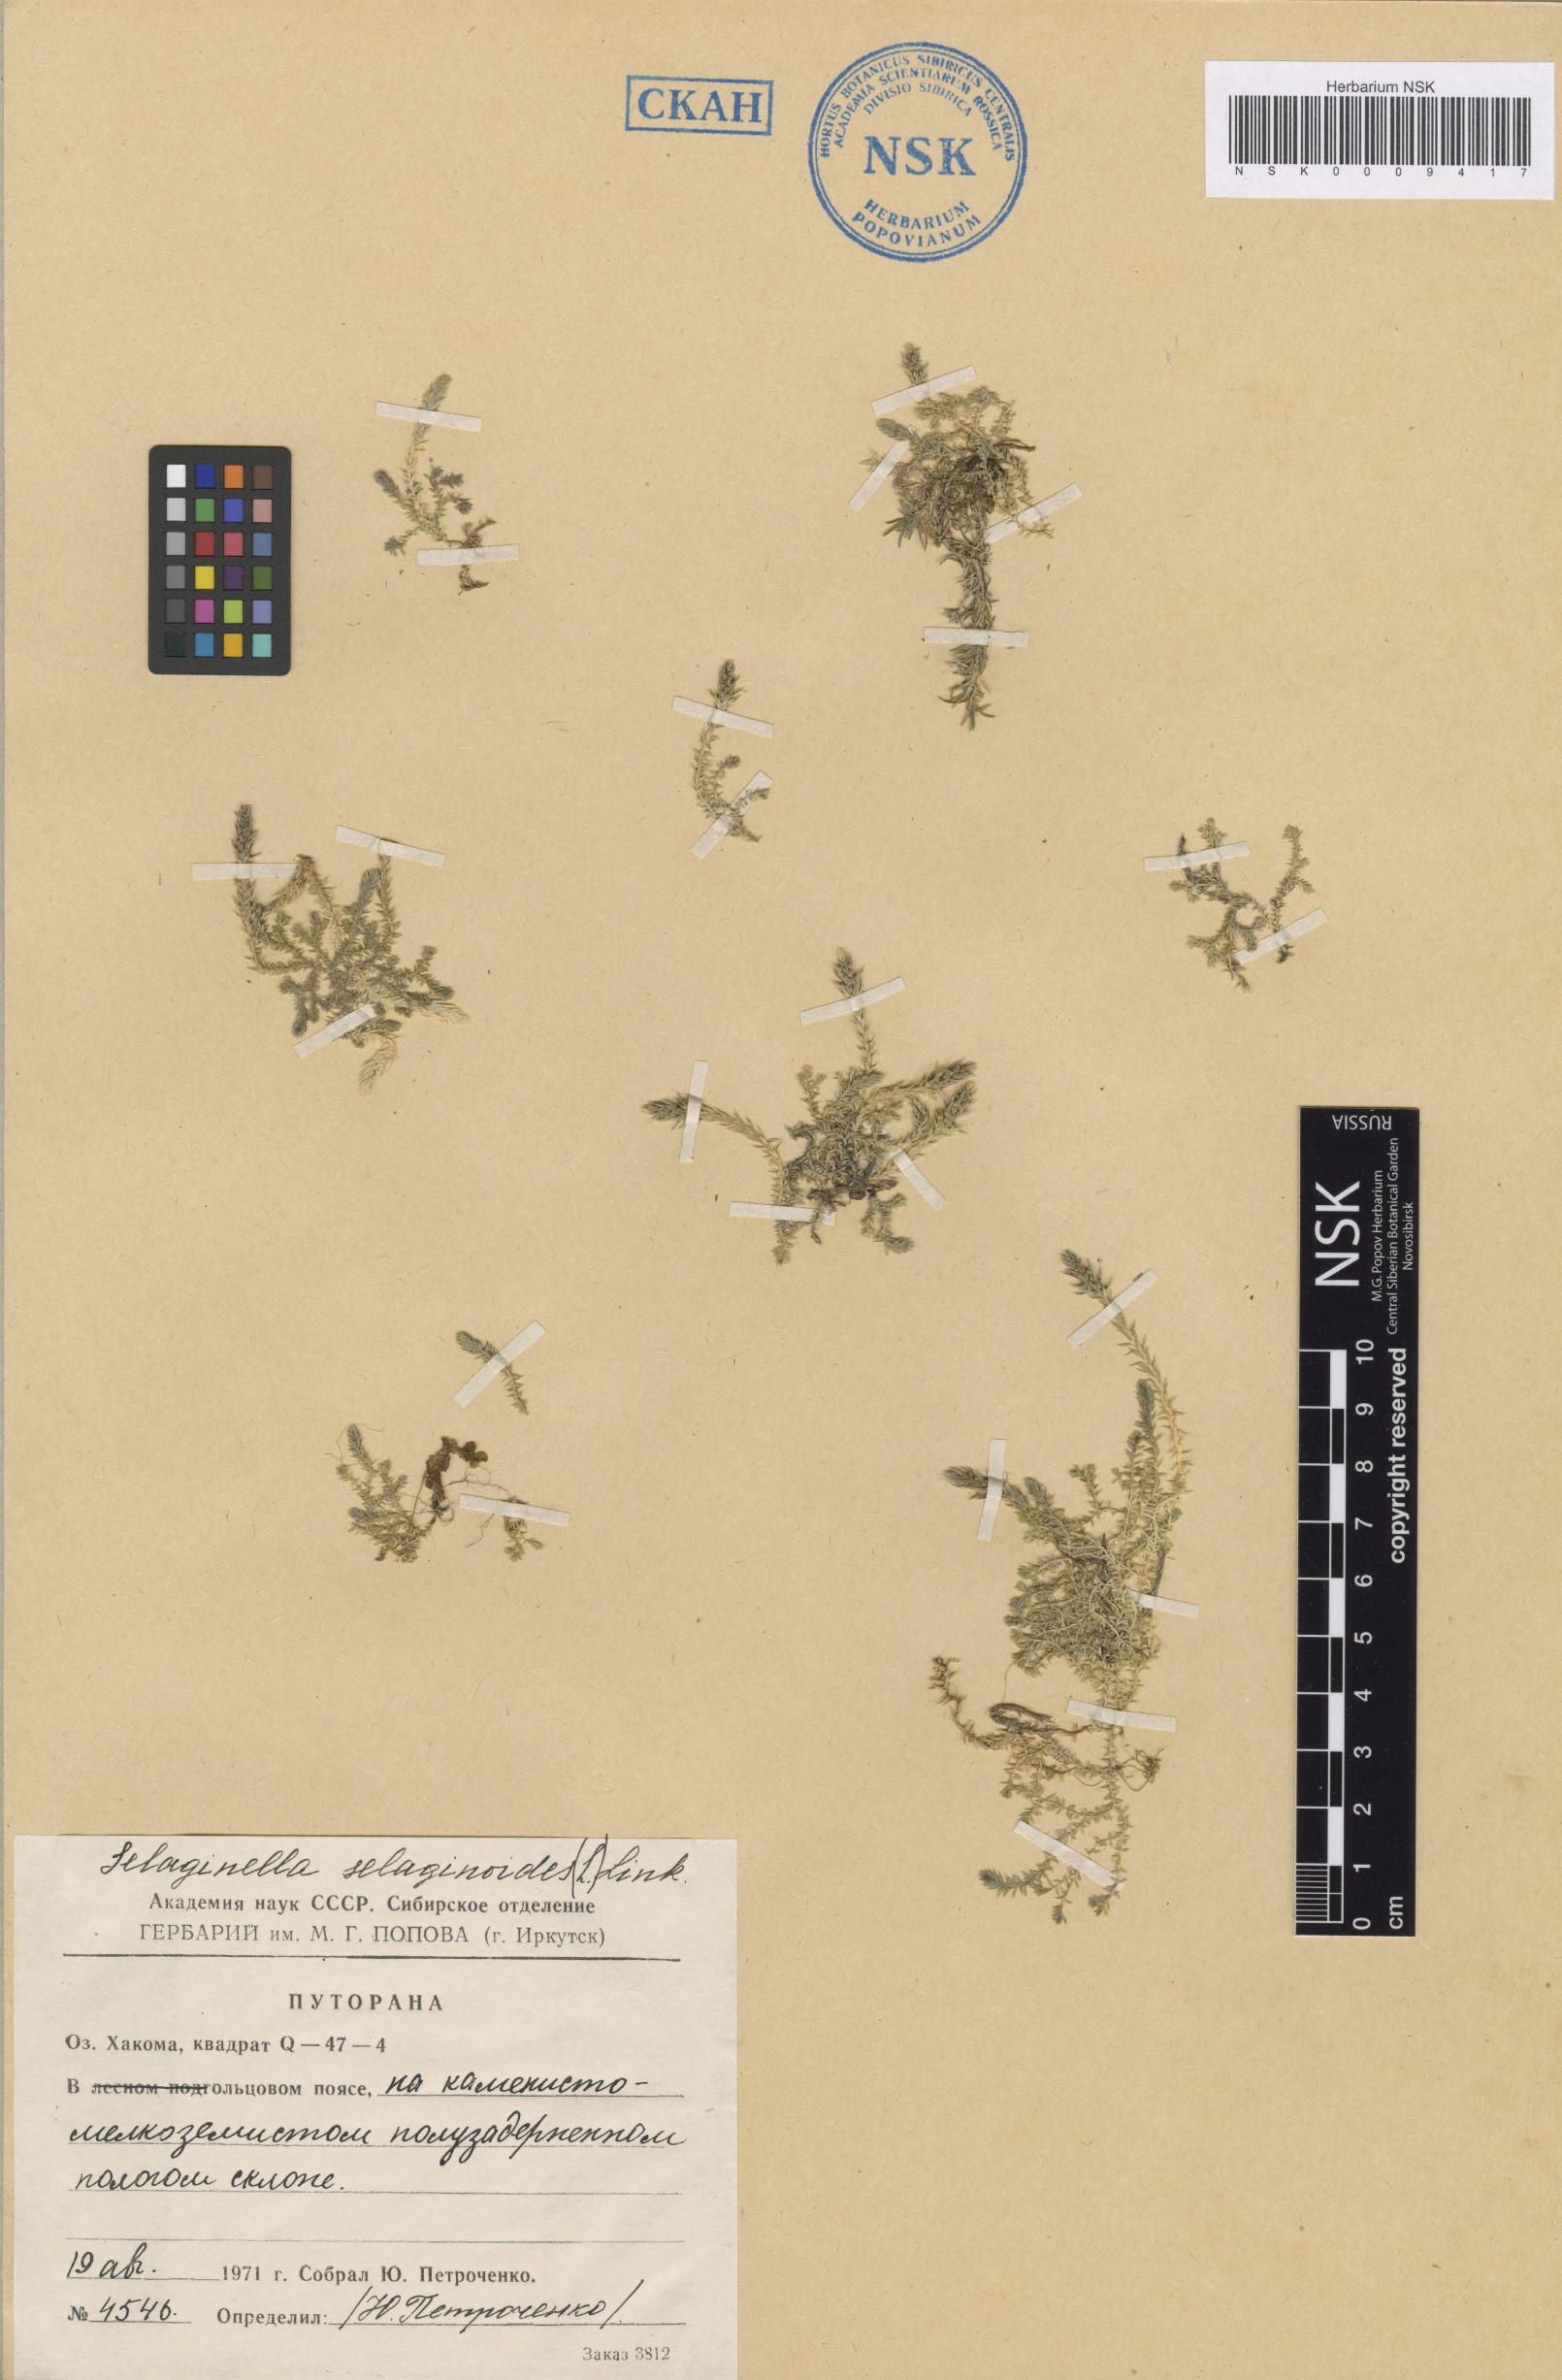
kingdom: Plantae
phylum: Tracheophyta
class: Lycopodiopsida
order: Selaginellales
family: Selaginellaceae
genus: Selaginella
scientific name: Selaginella selaginoides
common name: Prickly mountain-moss
